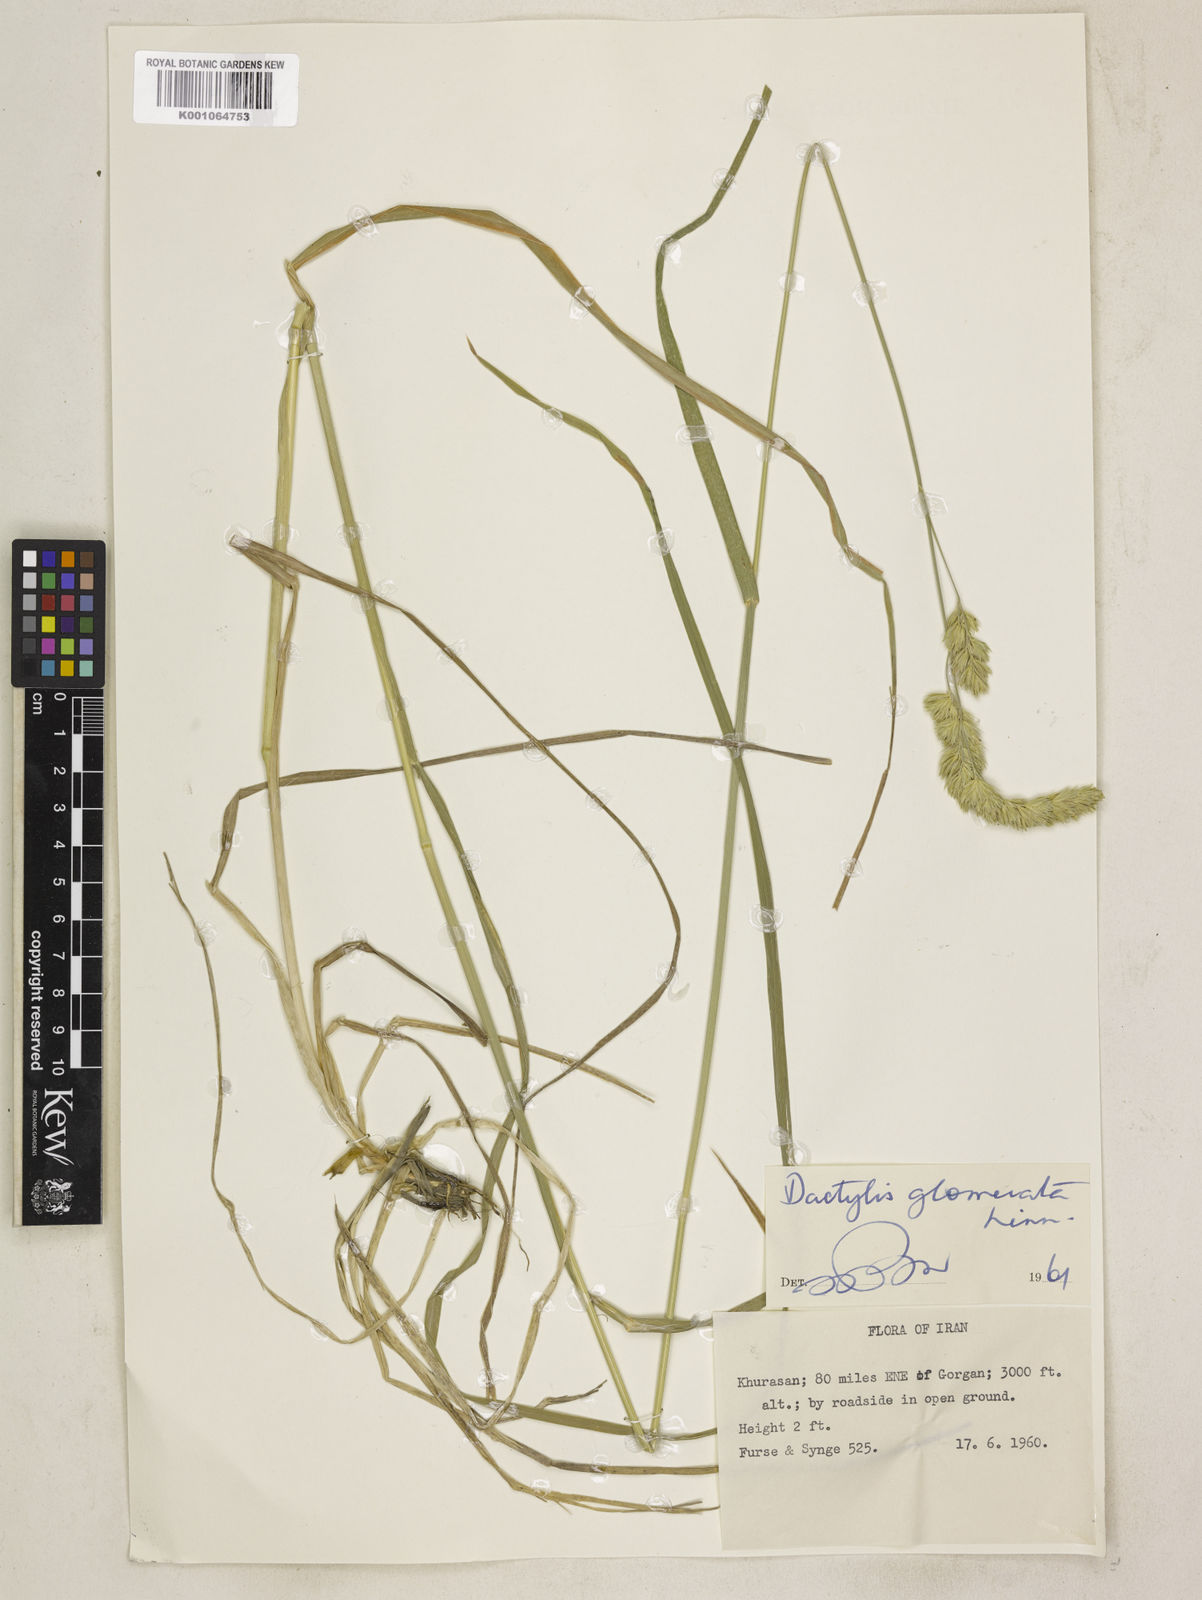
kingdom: Plantae
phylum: Tracheophyta
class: Liliopsida
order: Poales
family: Poaceae
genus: Dactylis
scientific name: Dactylis glomerata
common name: Orchardgrass
